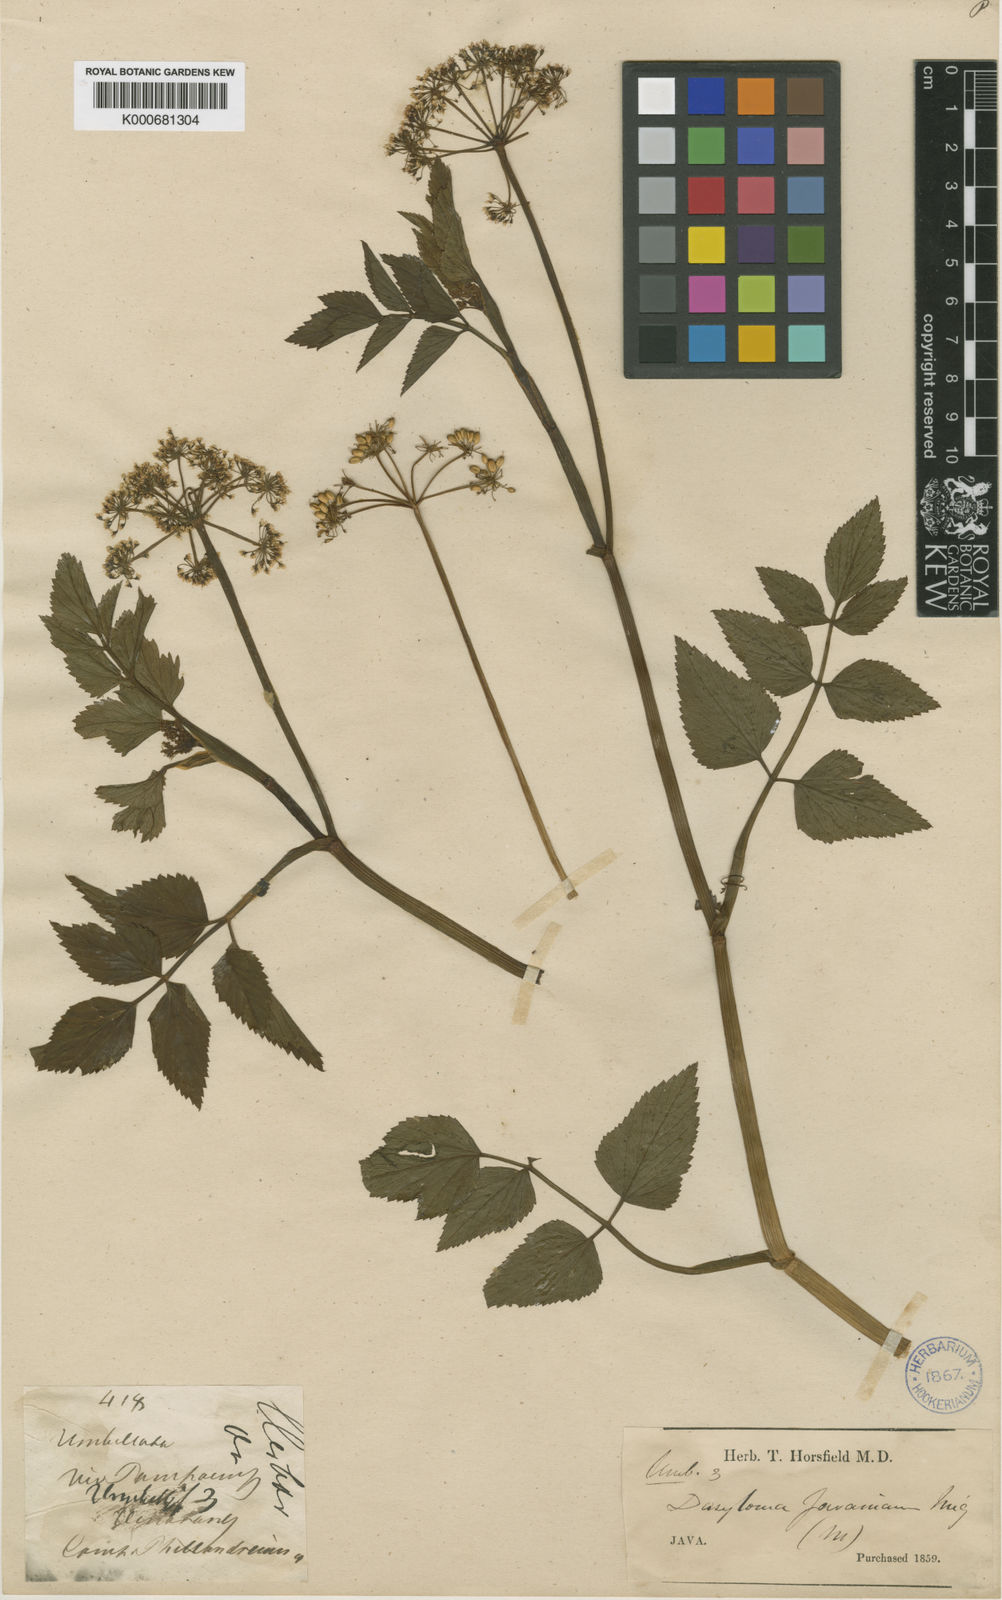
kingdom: Plantae
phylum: Tracheophyta
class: Magnoliopsida
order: Apiales
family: Apiaceae
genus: Oenanthe
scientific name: Oenanthe javanica
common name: Java water-dropwort
